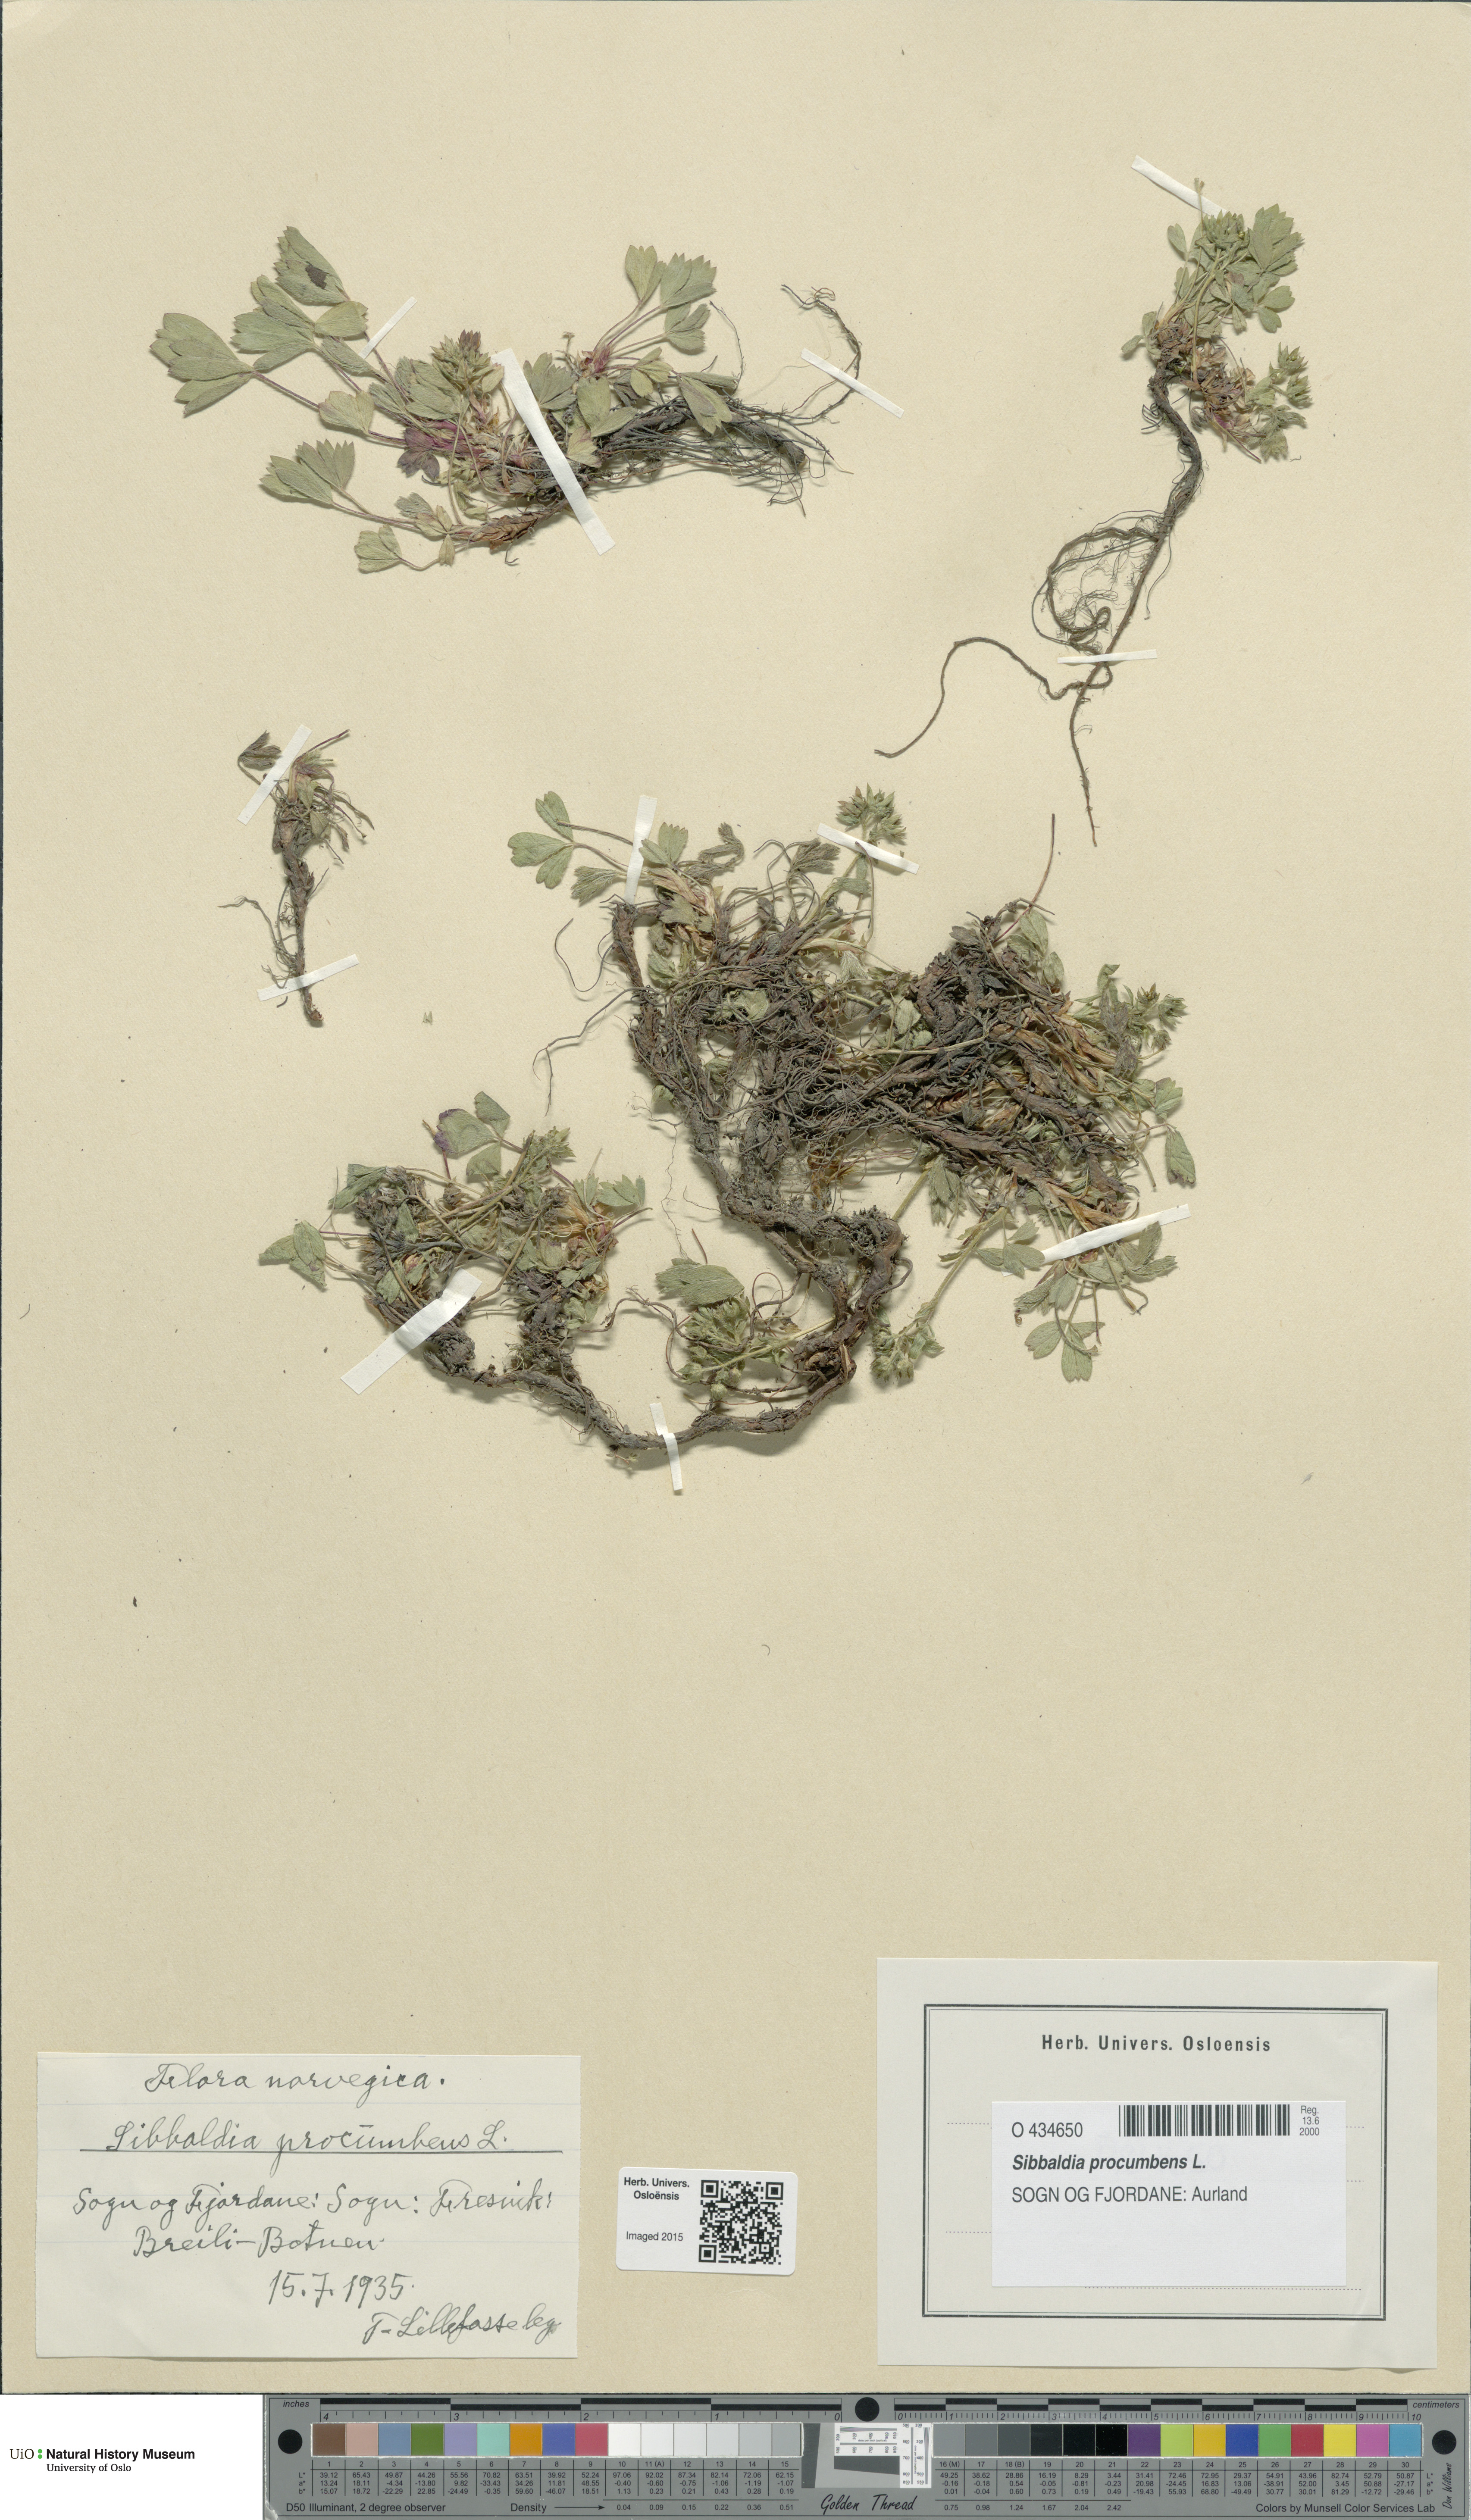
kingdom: Plantae
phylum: Tracheophyta
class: Magnoliopsida
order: Rosales
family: Rosaceae
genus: Sibbaldia
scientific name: Sibbaldia procumbens
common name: Creeping sibbaldia
